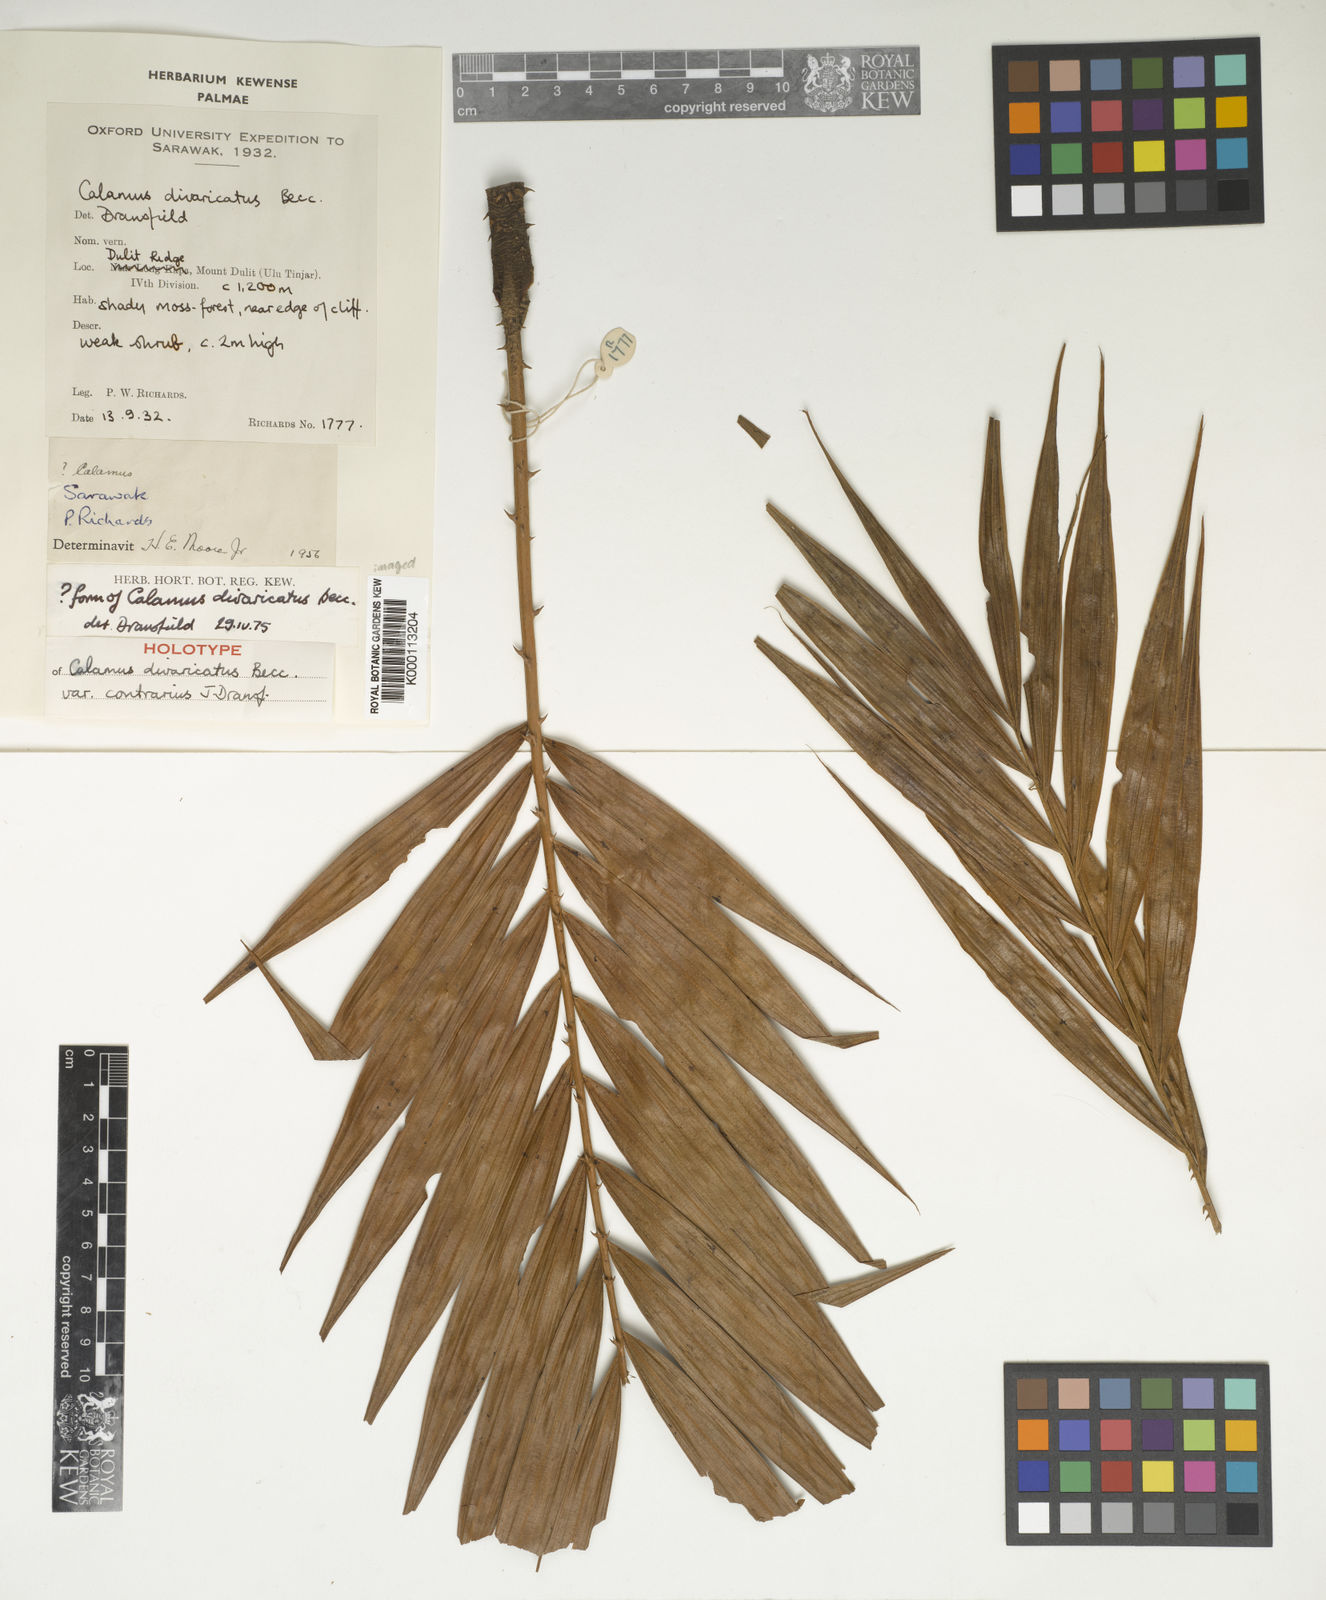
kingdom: Plantae
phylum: Tracheophyta
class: Liliopsida
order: Arecales
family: Arecaceae
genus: Calamus
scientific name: Calamus divaricatus
